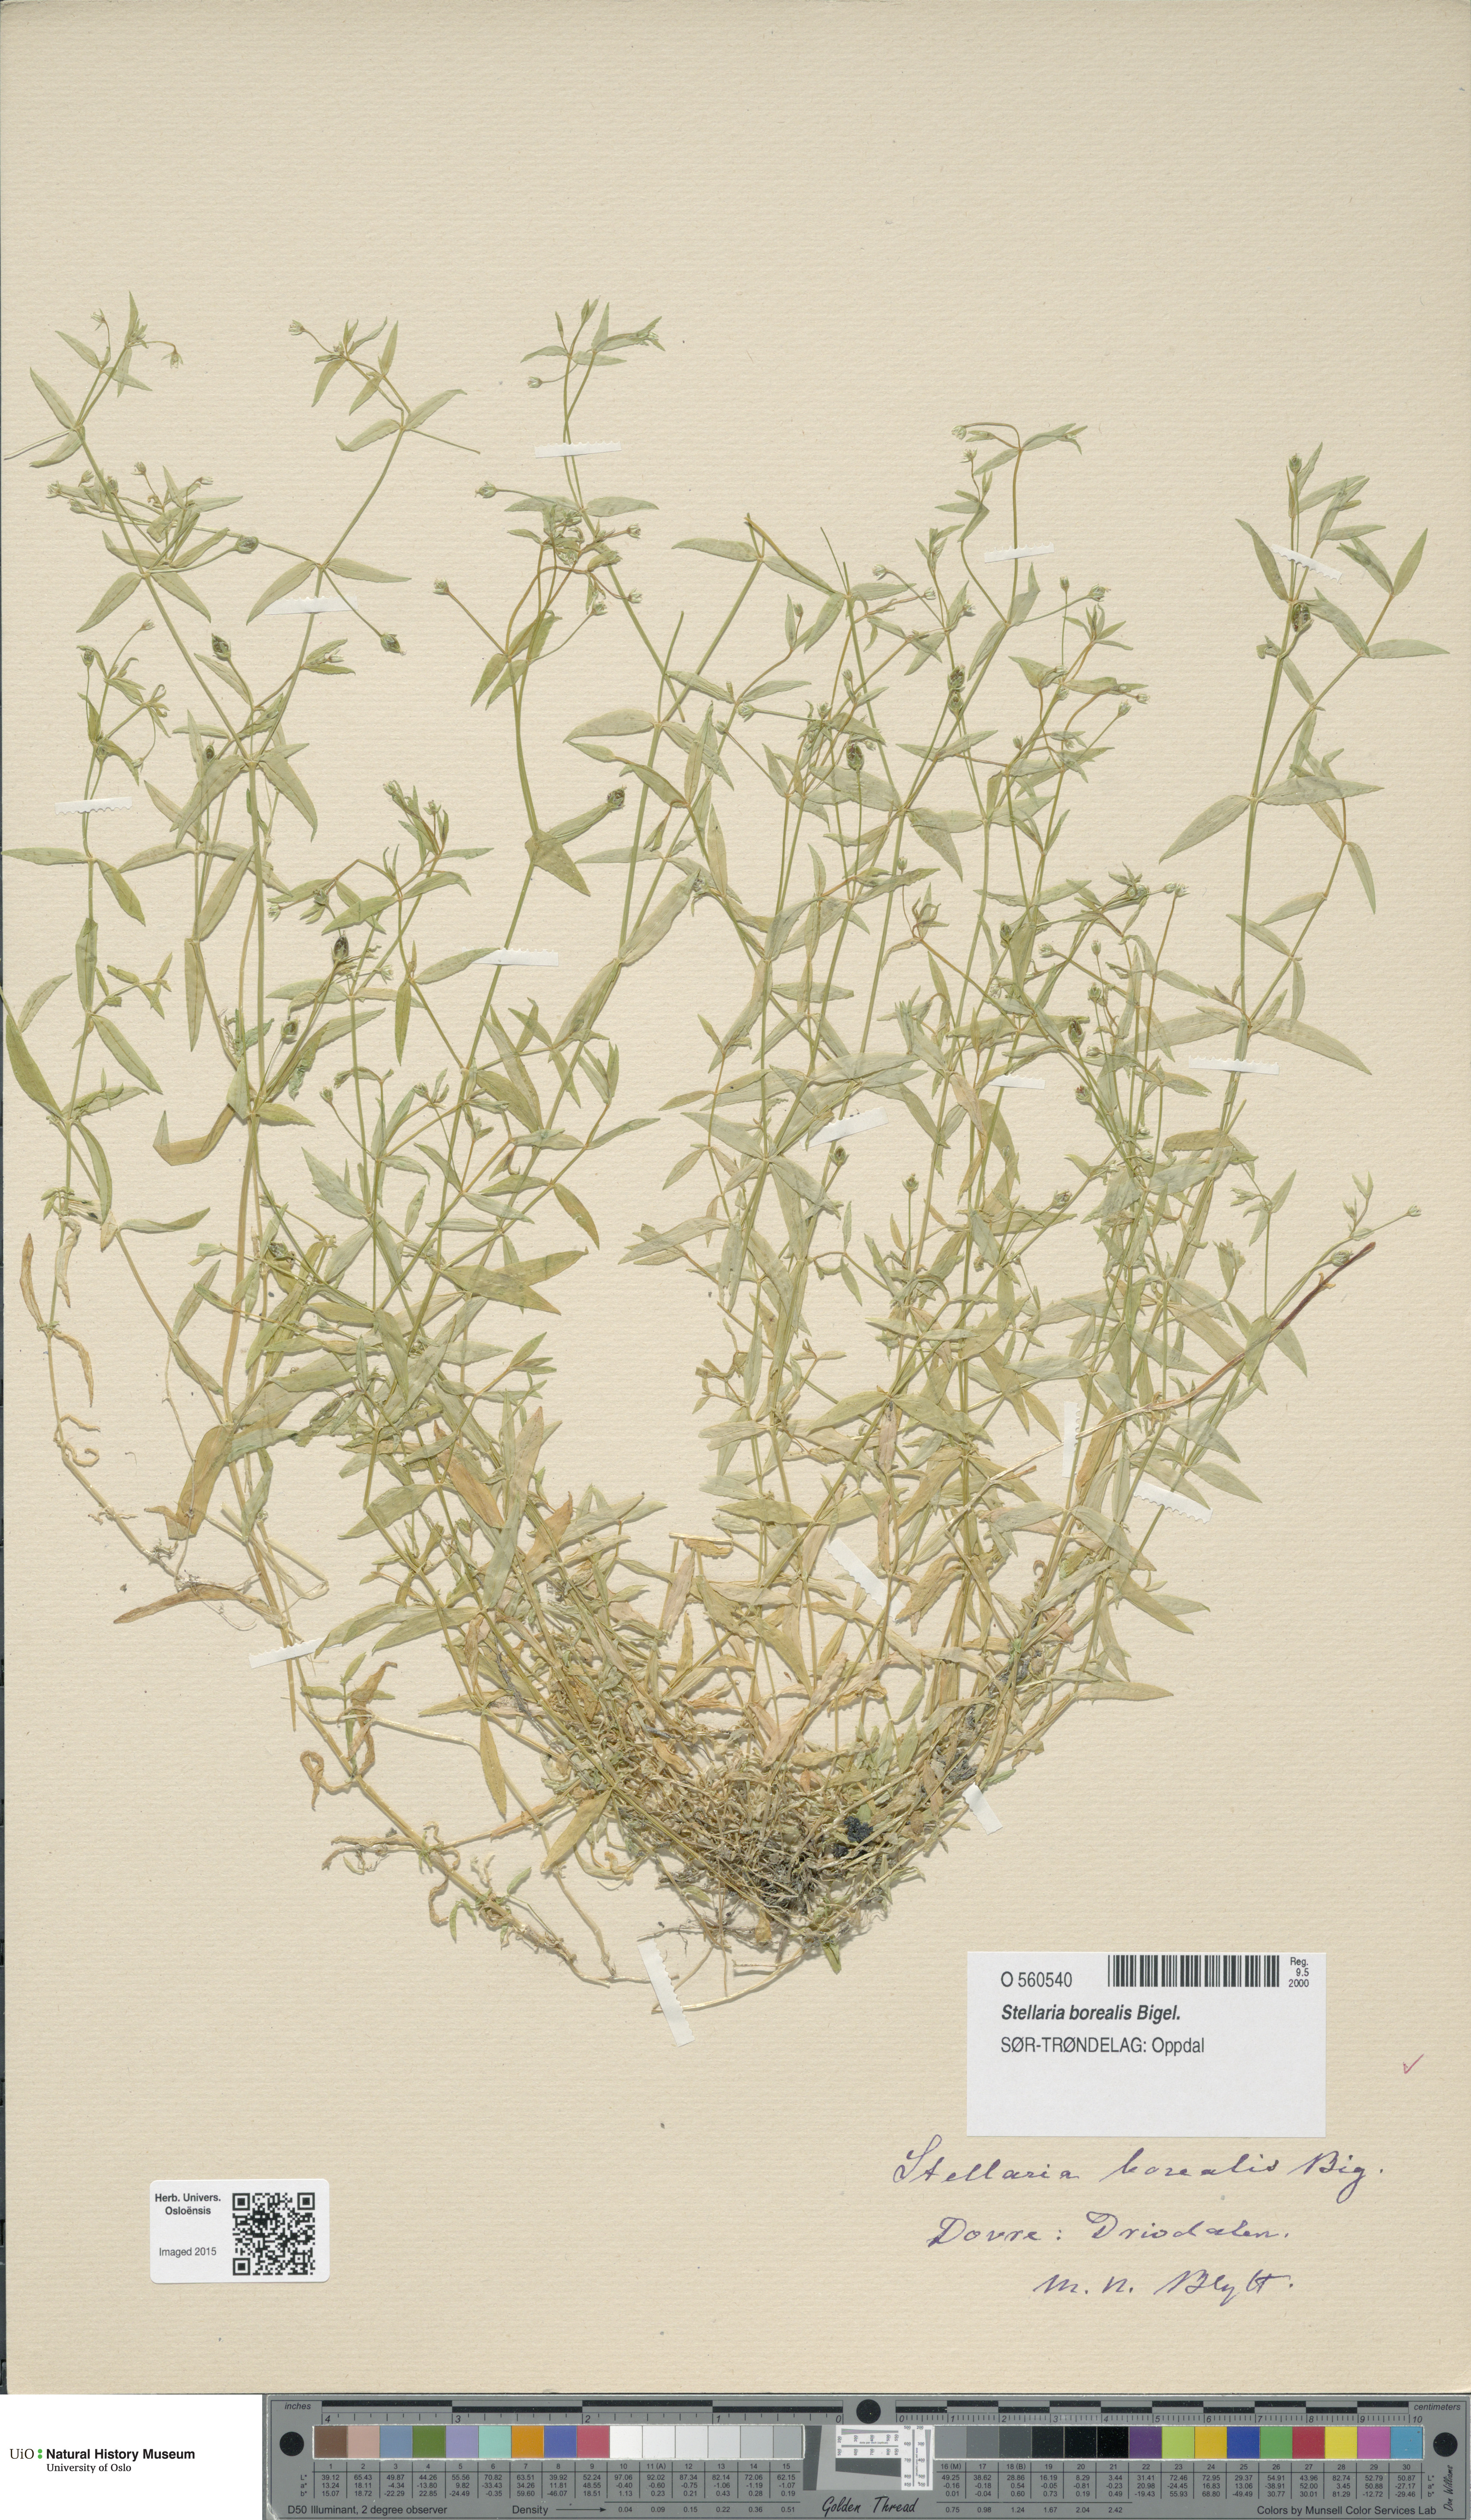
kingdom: Plantae
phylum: Tracheophyta
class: Magnoliopsida
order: Caryophyllales
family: Caryophyllaceae
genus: Stellaria
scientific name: Stellaria borealis
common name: Boreal starwort
